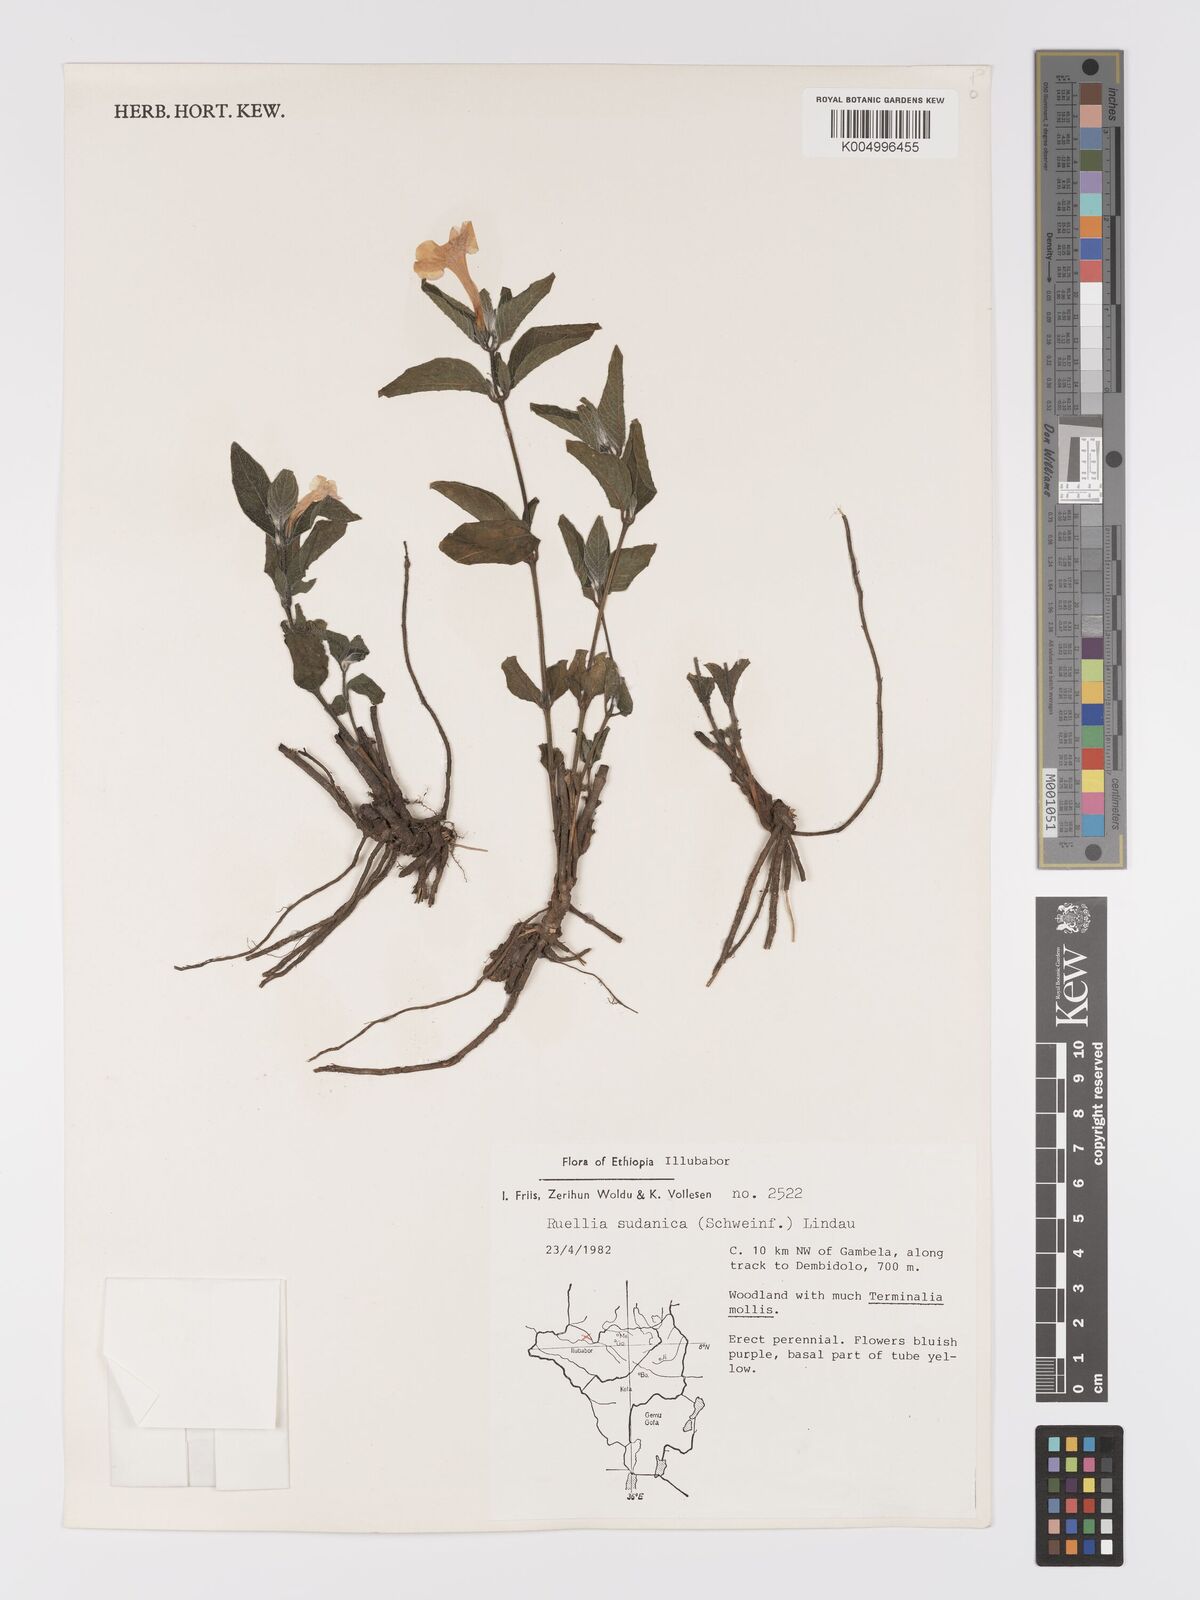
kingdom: Plantae
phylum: Tracheophyta
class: Magnoliopsida
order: Lamiales
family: Acanthaceae
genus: Ruellia
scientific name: Ruellia
